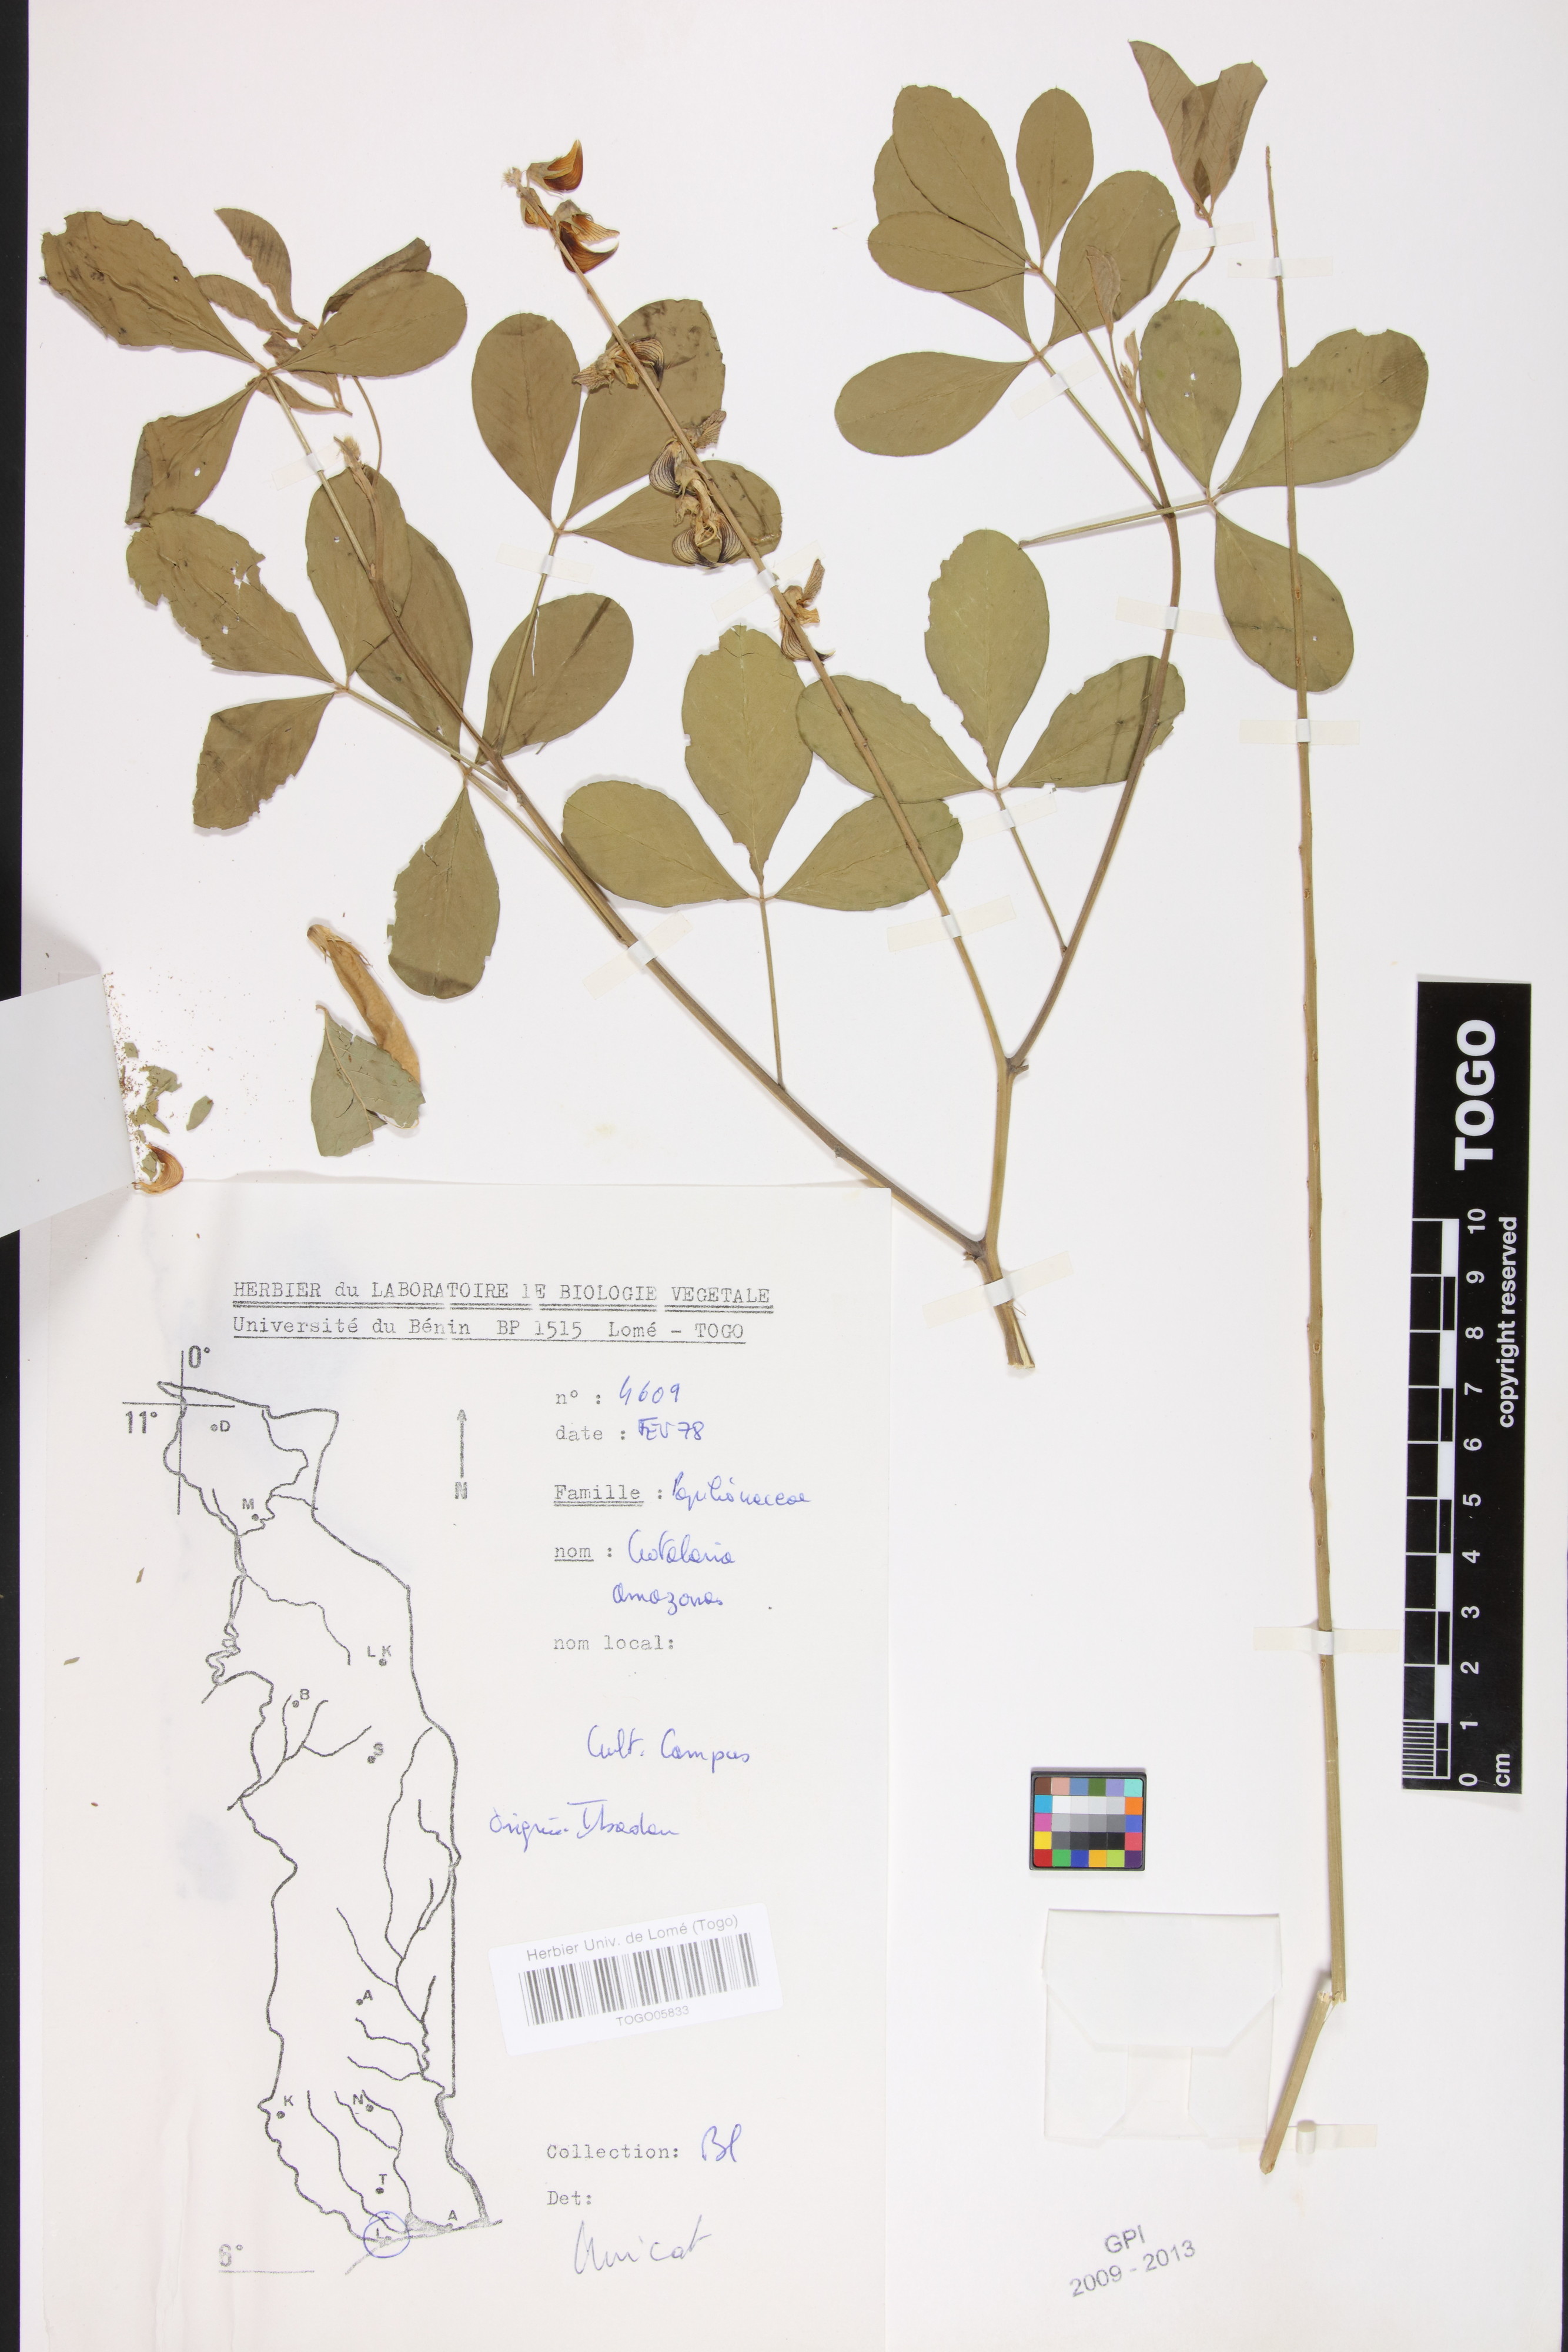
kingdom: Plantae
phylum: Tracheophyta
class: Magnoliopsida
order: Fabales
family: Fabaceae
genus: Crotalaria
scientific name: Crotalaria pallida
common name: Smooth rattlebox
